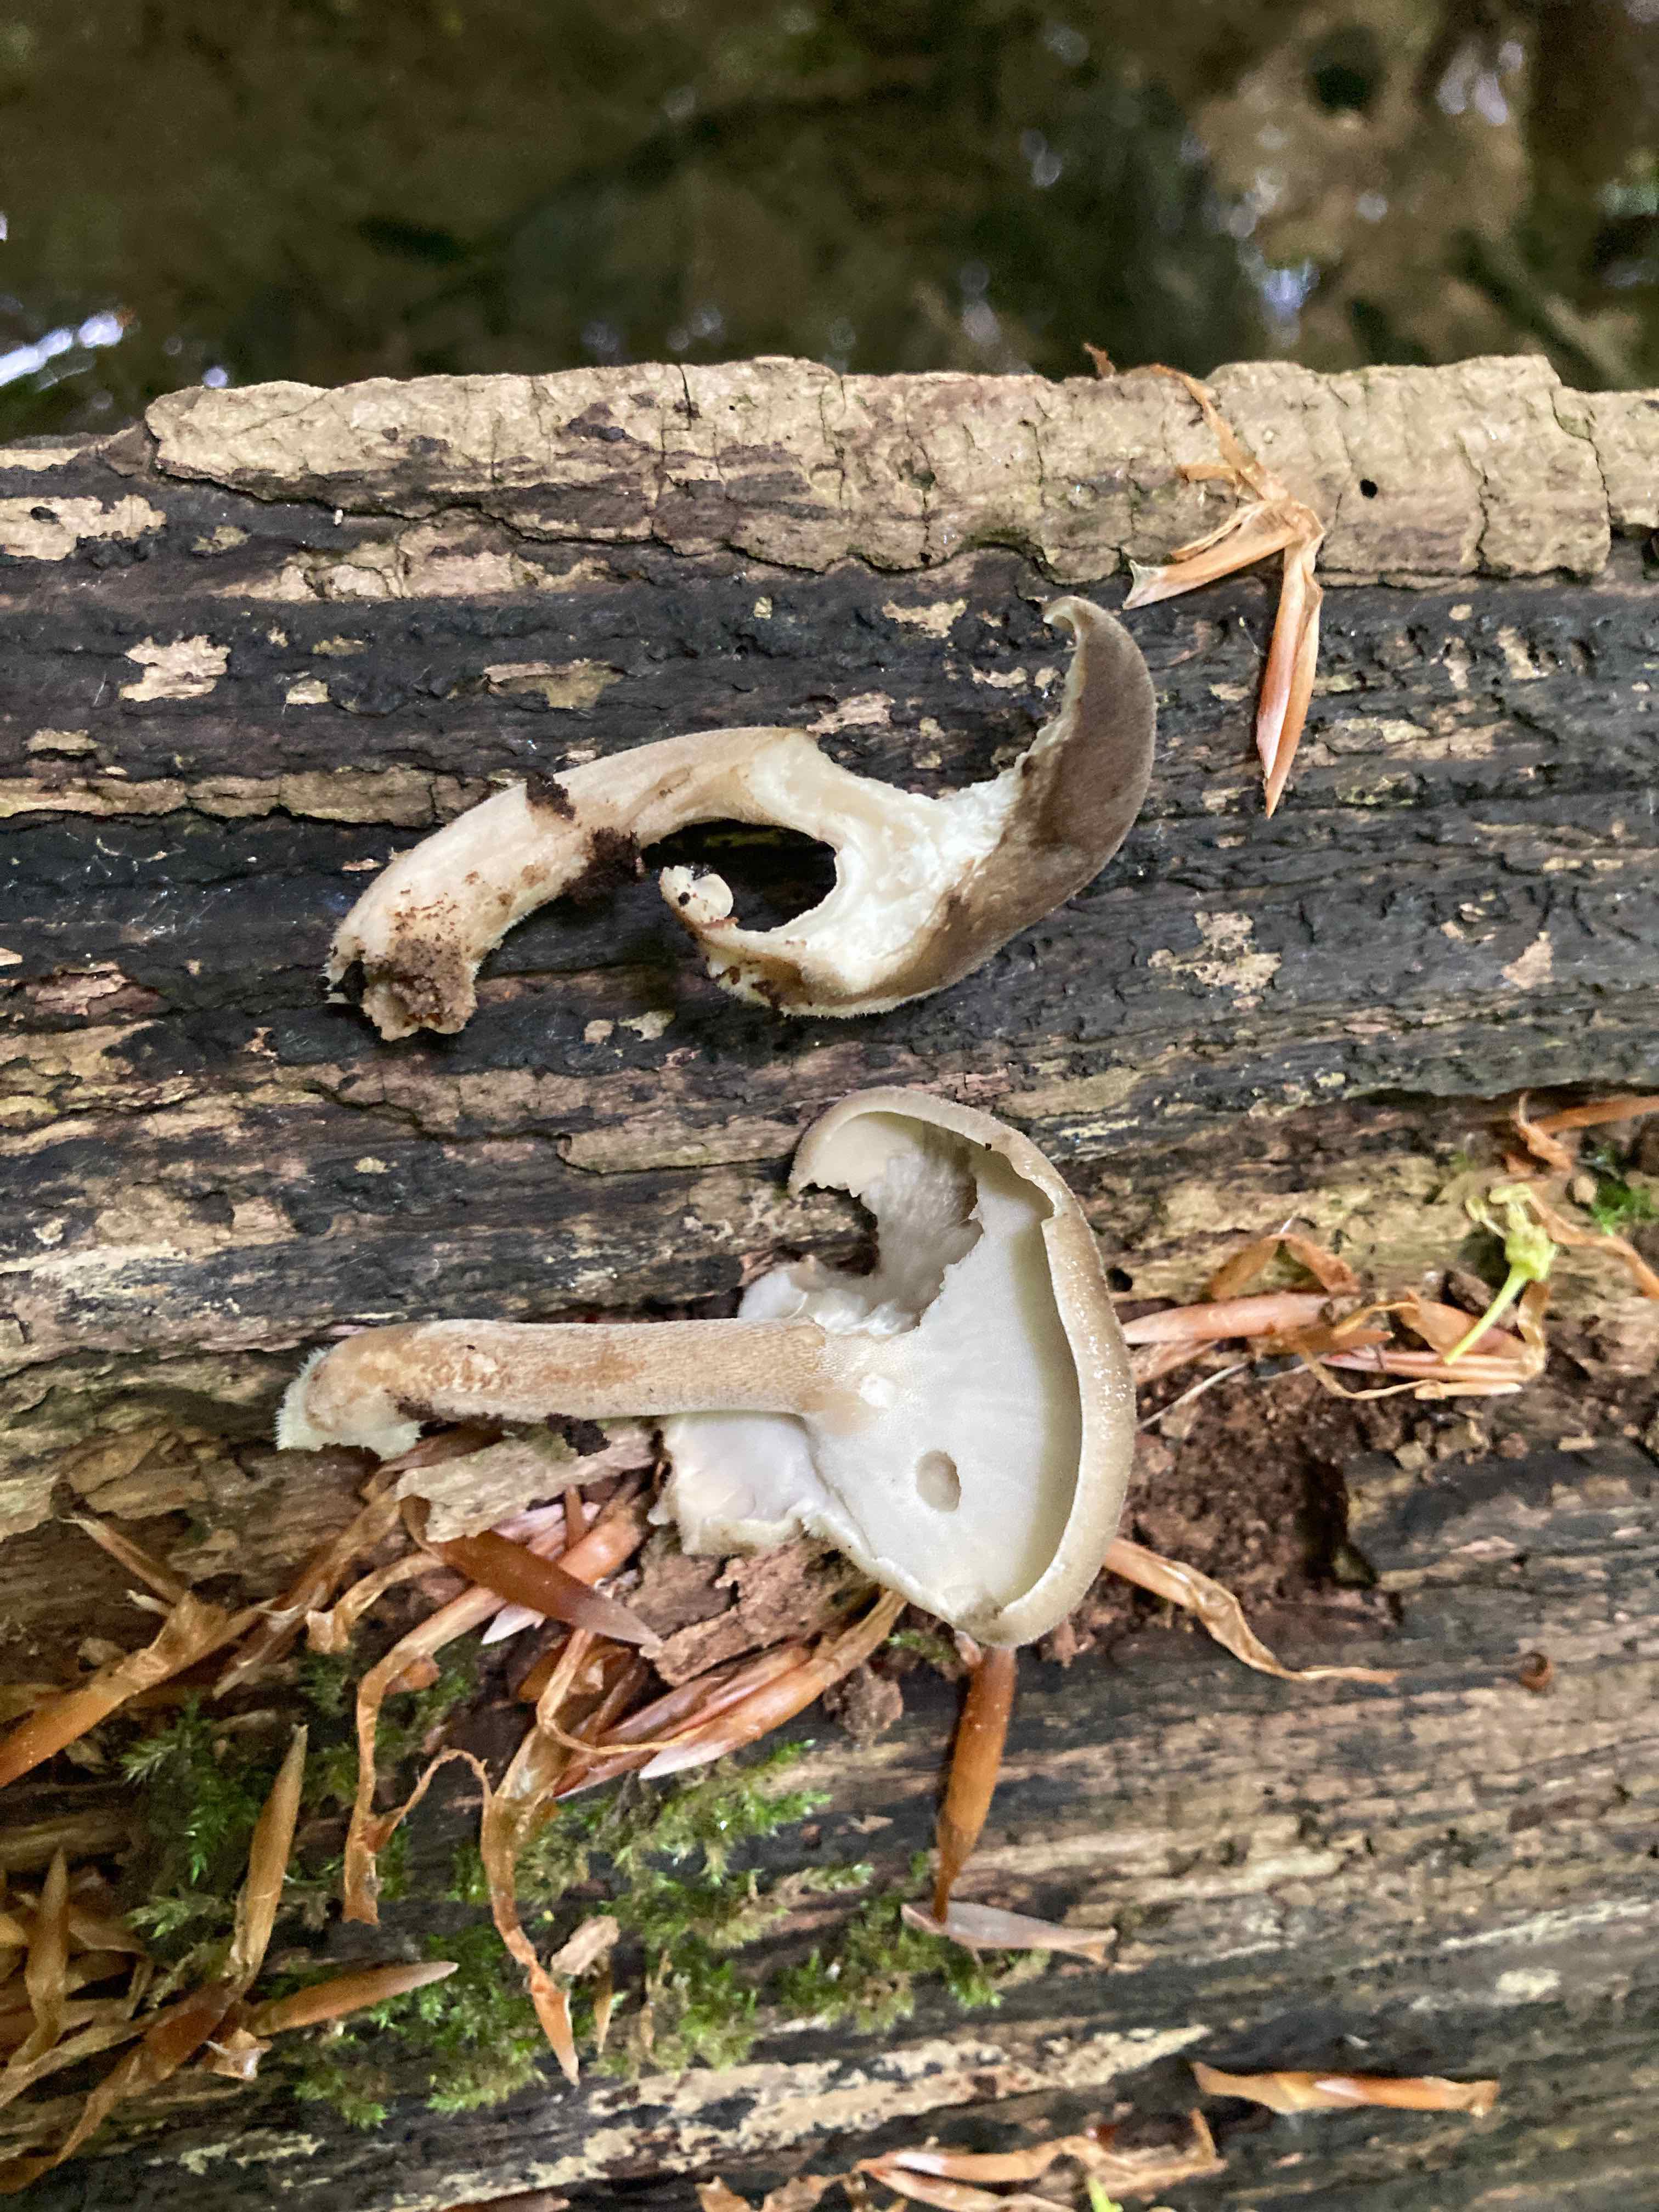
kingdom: Fungi
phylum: Basidiomycota
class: Agaricomycetes
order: Polyporales
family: Polyporaceae
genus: Lentinus
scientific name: Lentinus substrictus
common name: forårs-stilkporesvamp
